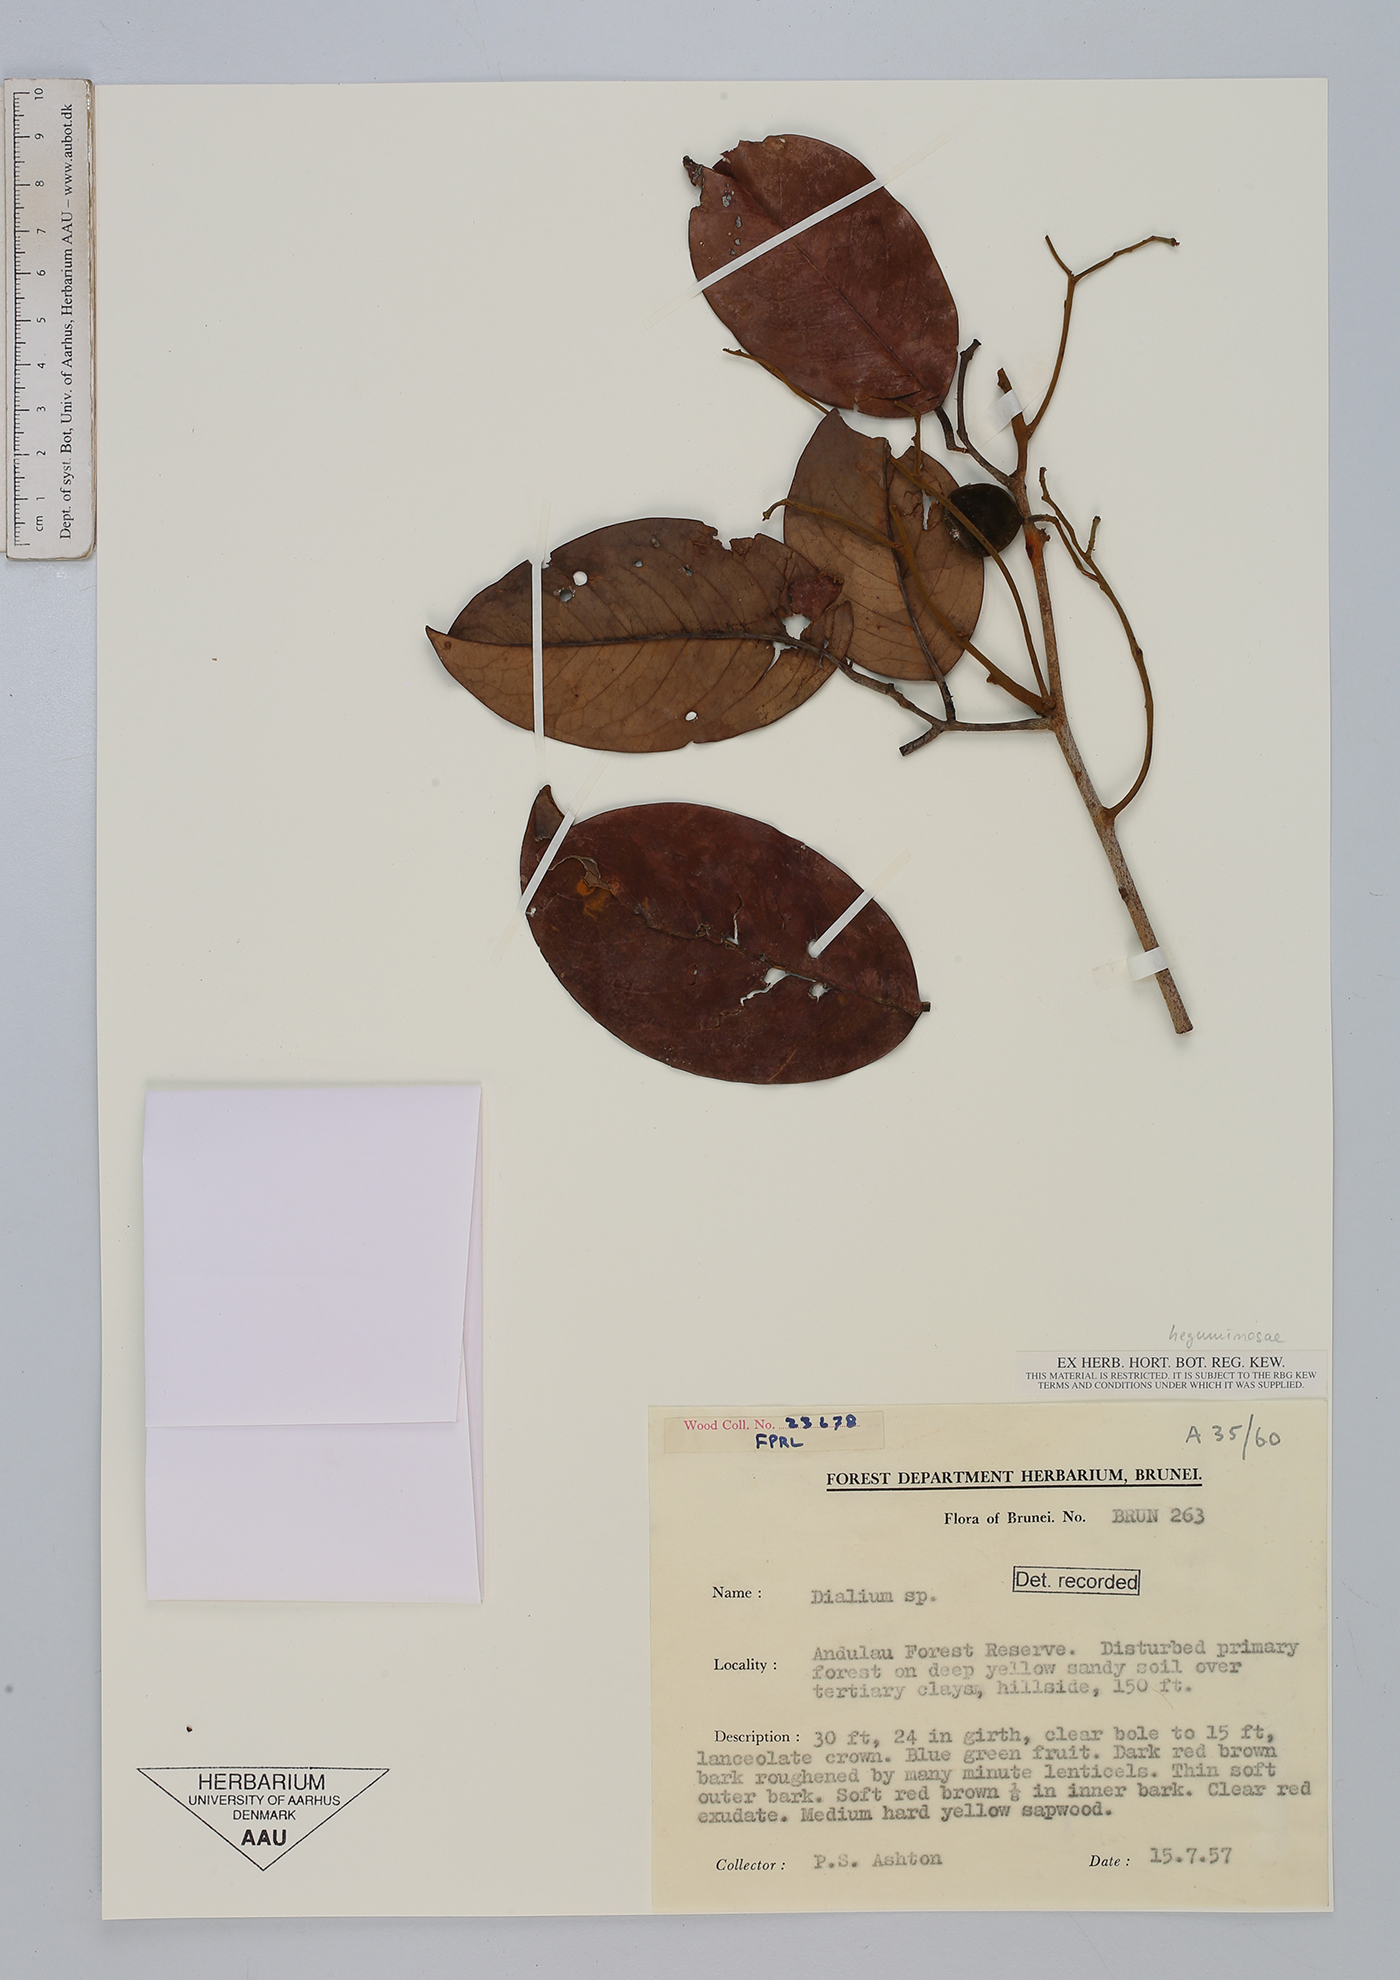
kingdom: Plantae
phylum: Tracheophyta
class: Magnoliopsida
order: Fabales
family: Fabaceae
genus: Dialium
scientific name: Dialium
